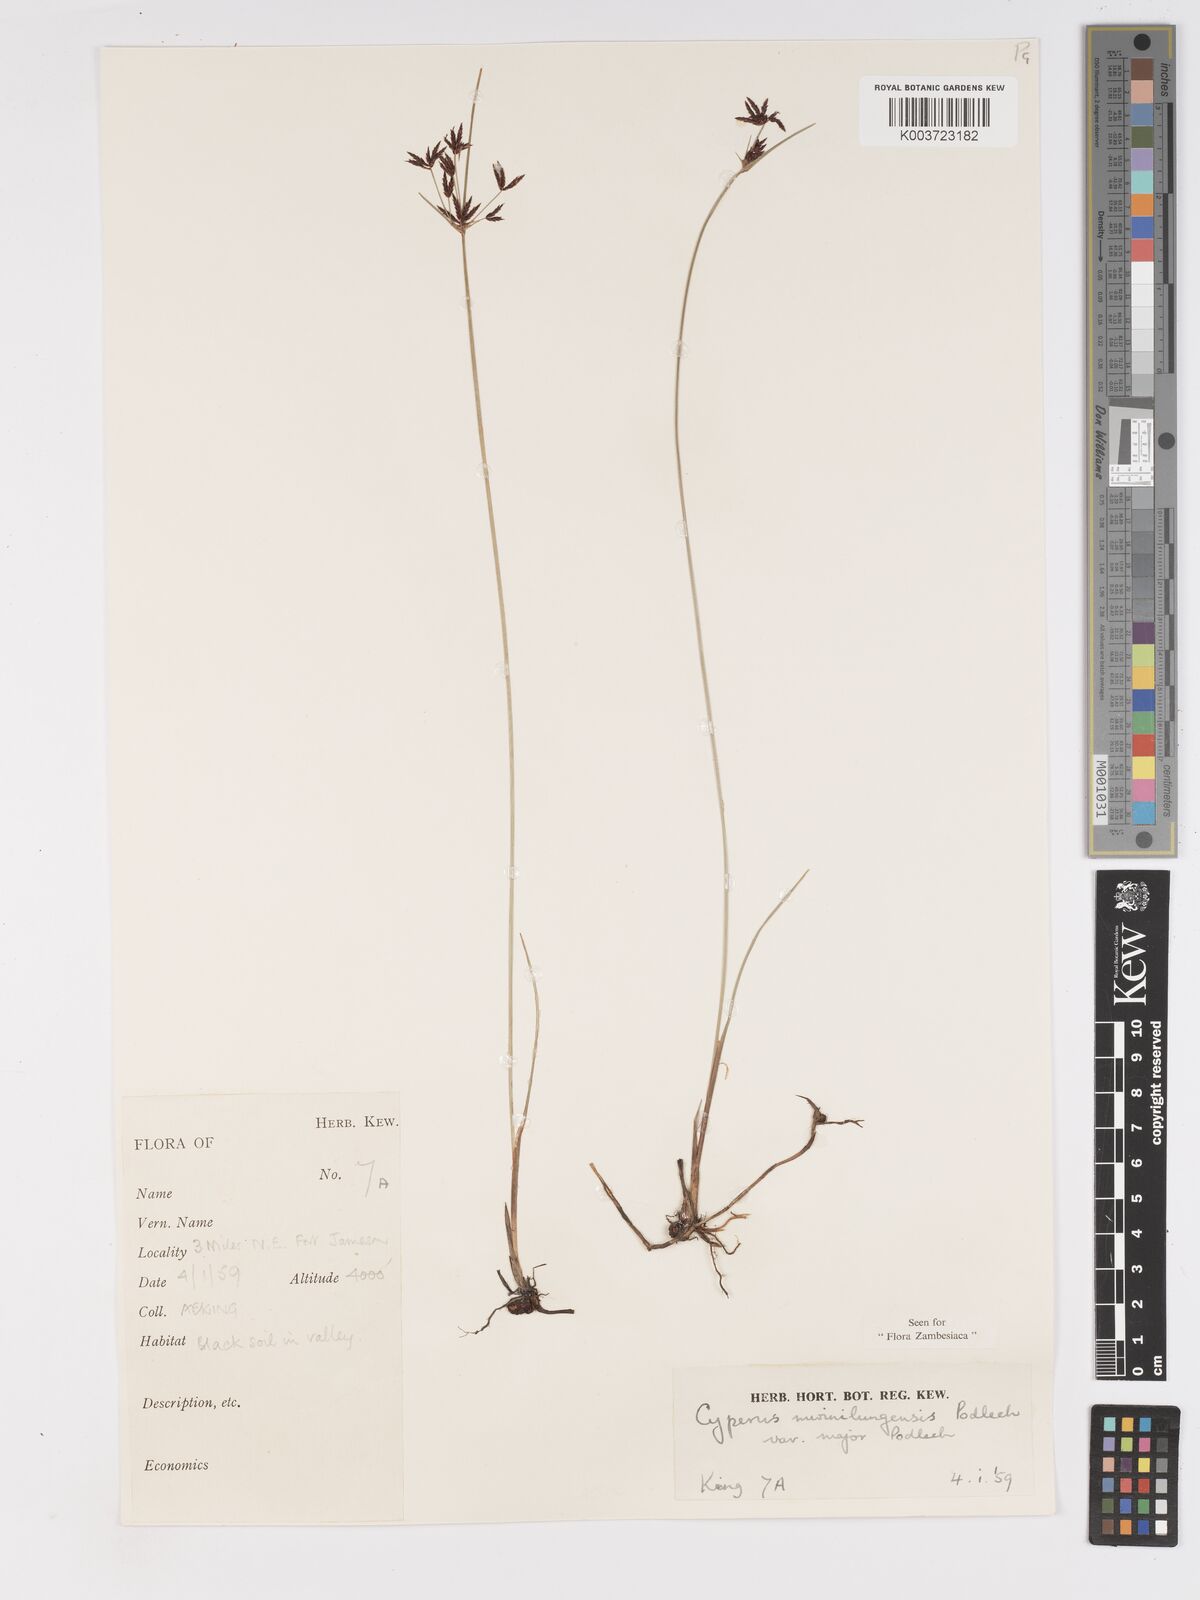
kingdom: Plantae
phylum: Tracheophyta
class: Liliopsida
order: Poales
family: Cyperaceae
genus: Cyperus
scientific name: Cyperus mwinilungensis
